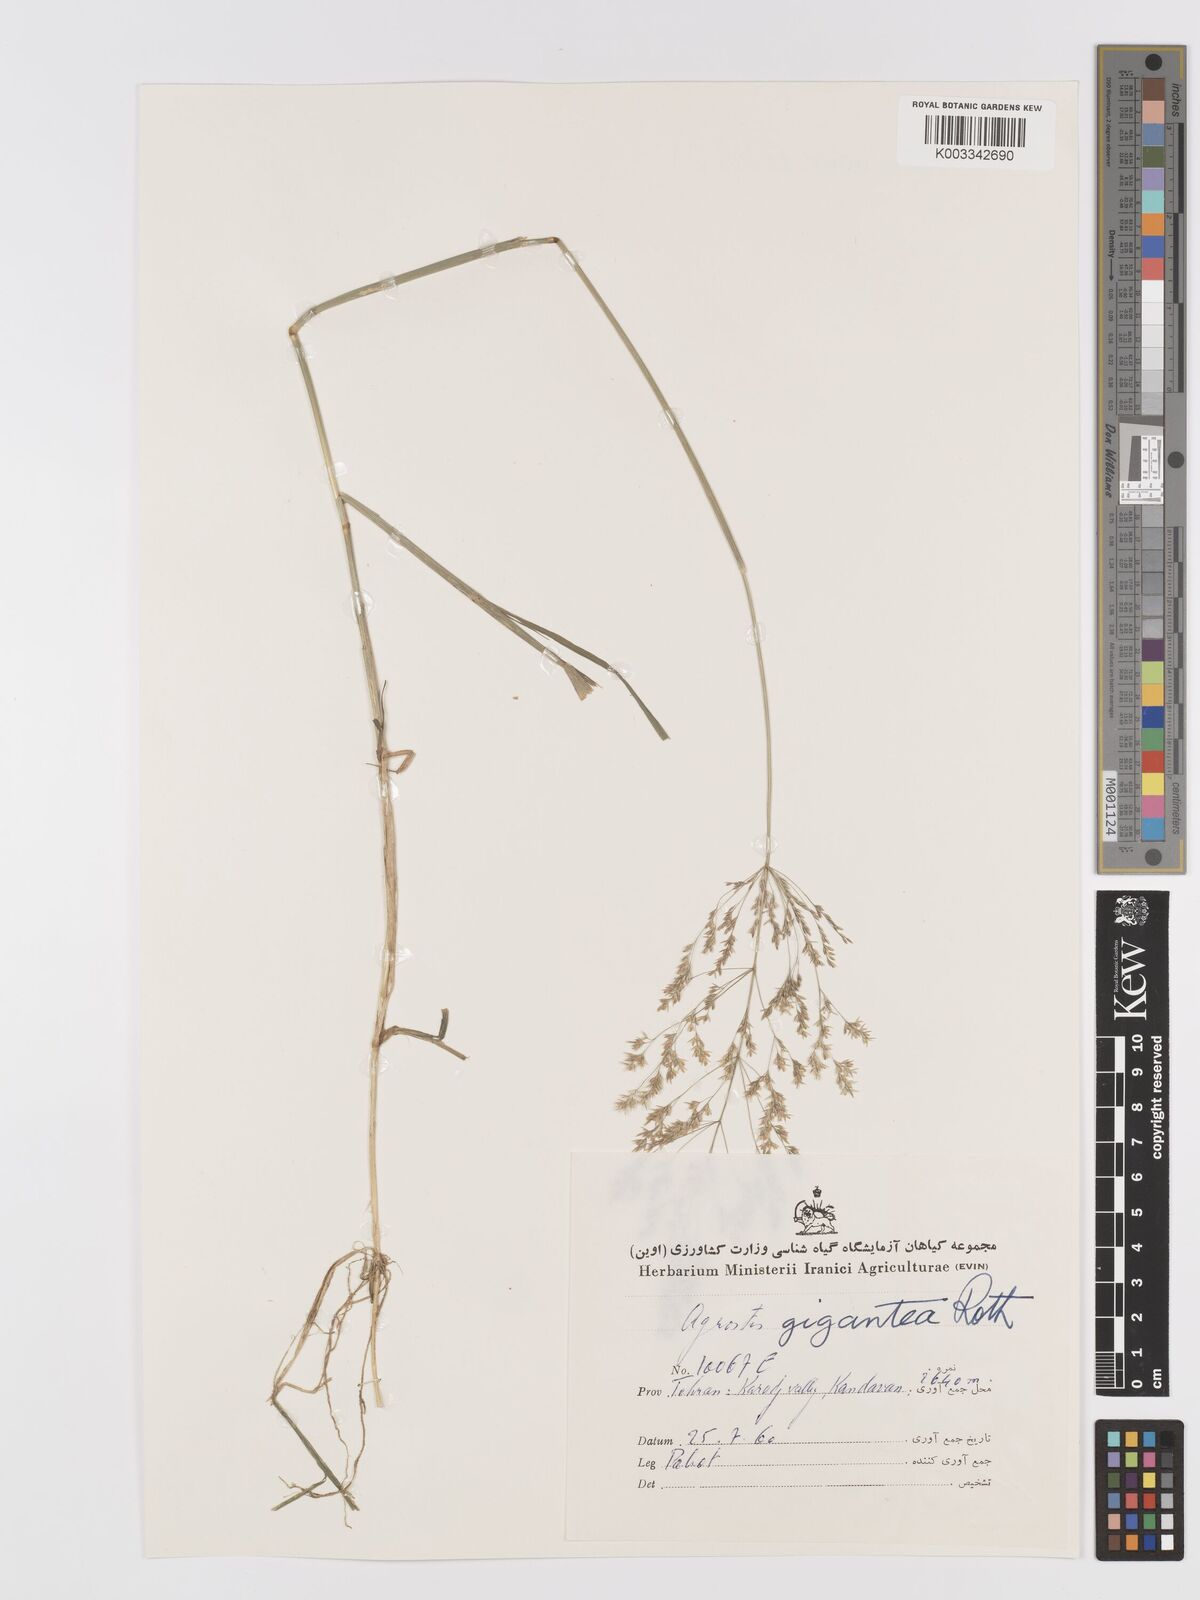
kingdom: Plantae
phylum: Tracheophyta
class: Liliopsida
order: Poales
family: Poaceae
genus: Agrostis
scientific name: Agrostis gigantea
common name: Black bent
